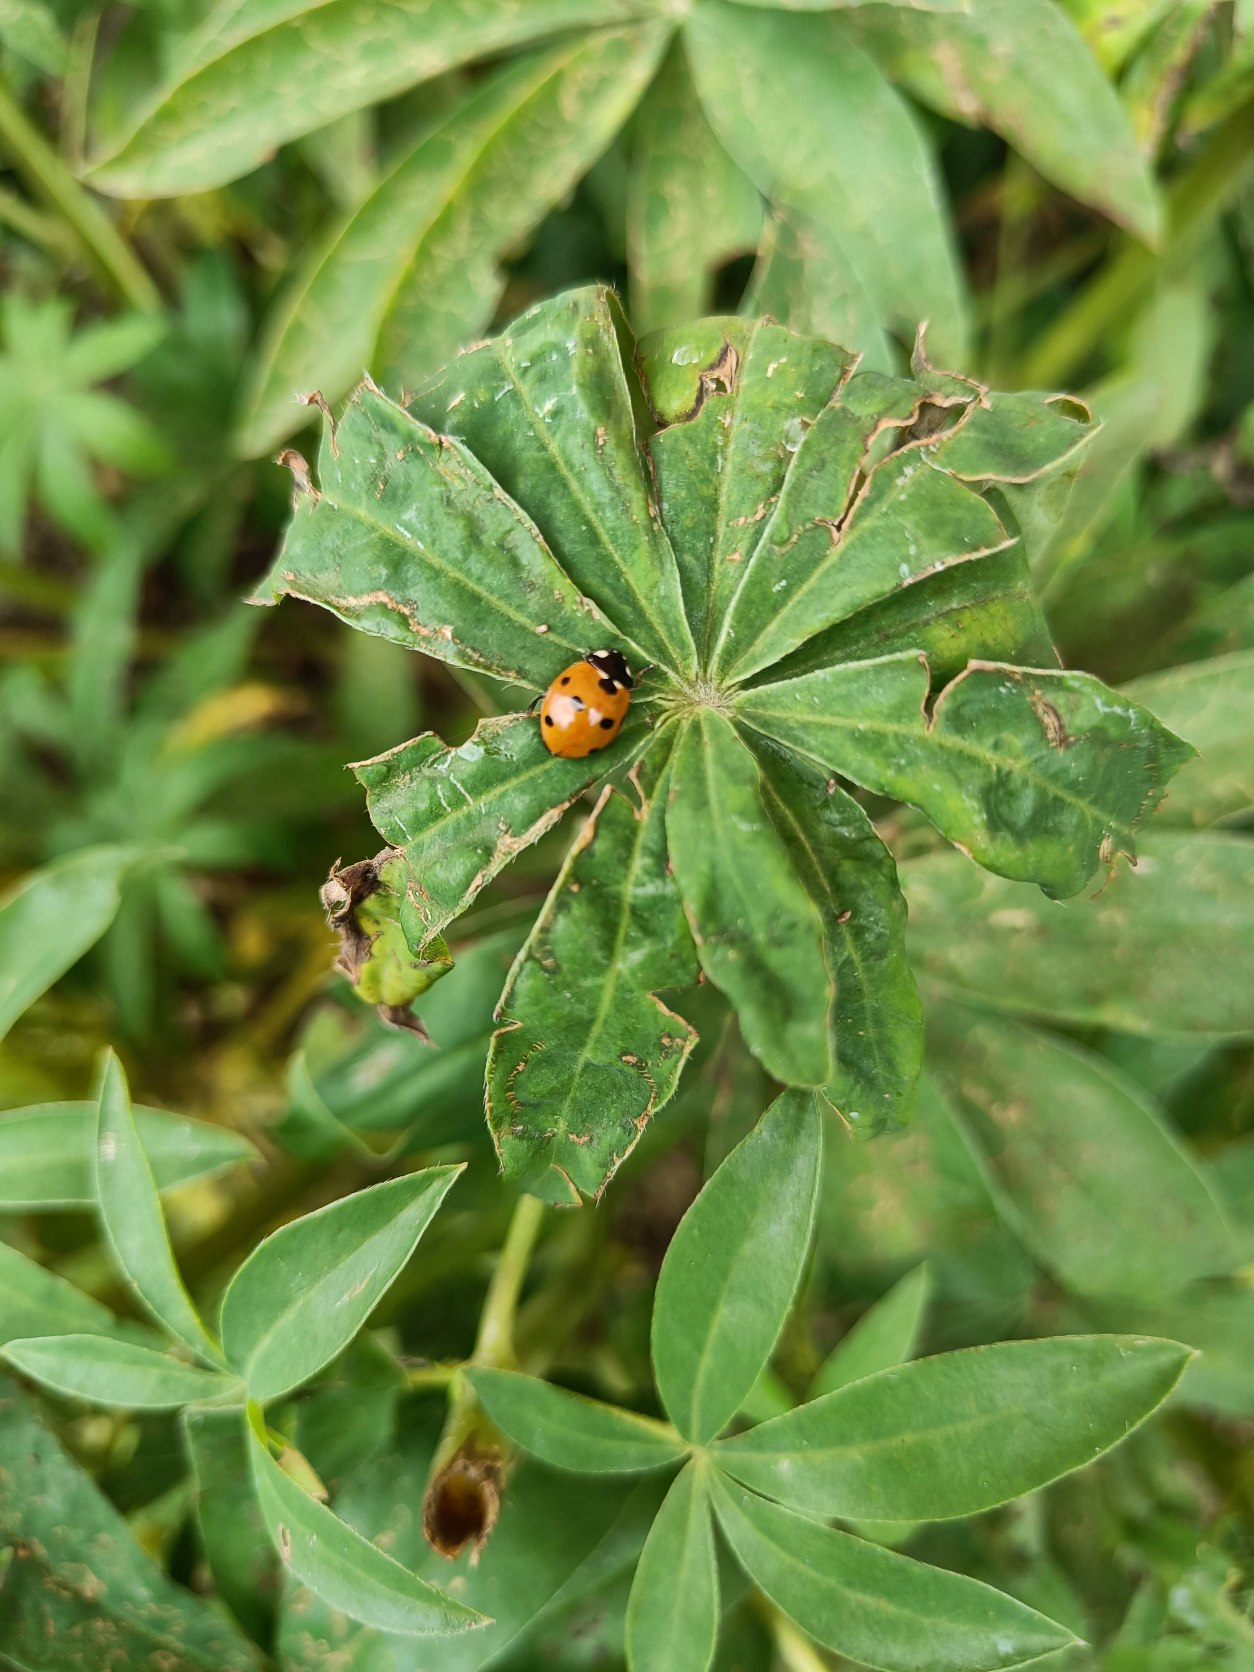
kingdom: Animalia
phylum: Arthropoda
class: Insecta
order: Coleoptera
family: Coccinellidae
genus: Coccinella
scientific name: Coccinella septempunctata
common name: Syvplettet mariehøne
